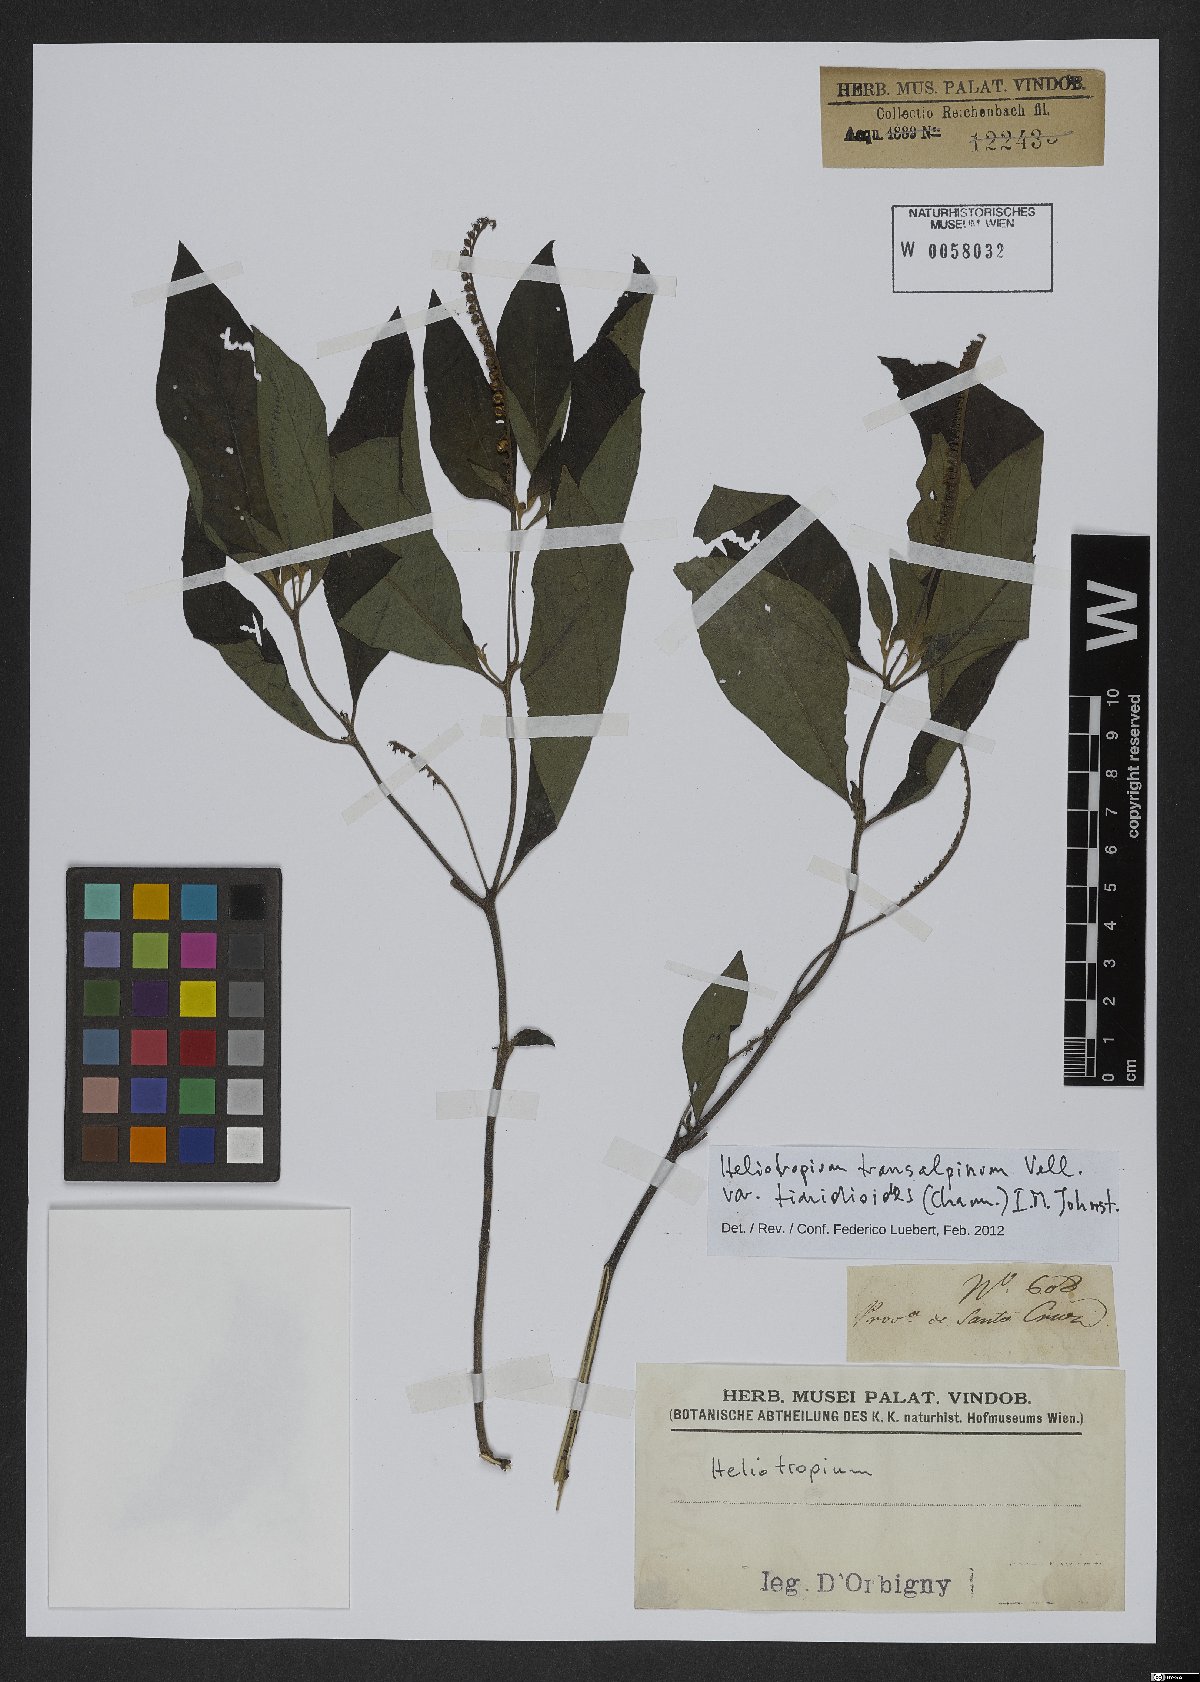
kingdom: Plantae
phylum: Tracheophyta
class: Magnoliopsida
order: Boraginales
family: Heliotropiaceae
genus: Heliotropium
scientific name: Heliotropium tiaridioides
